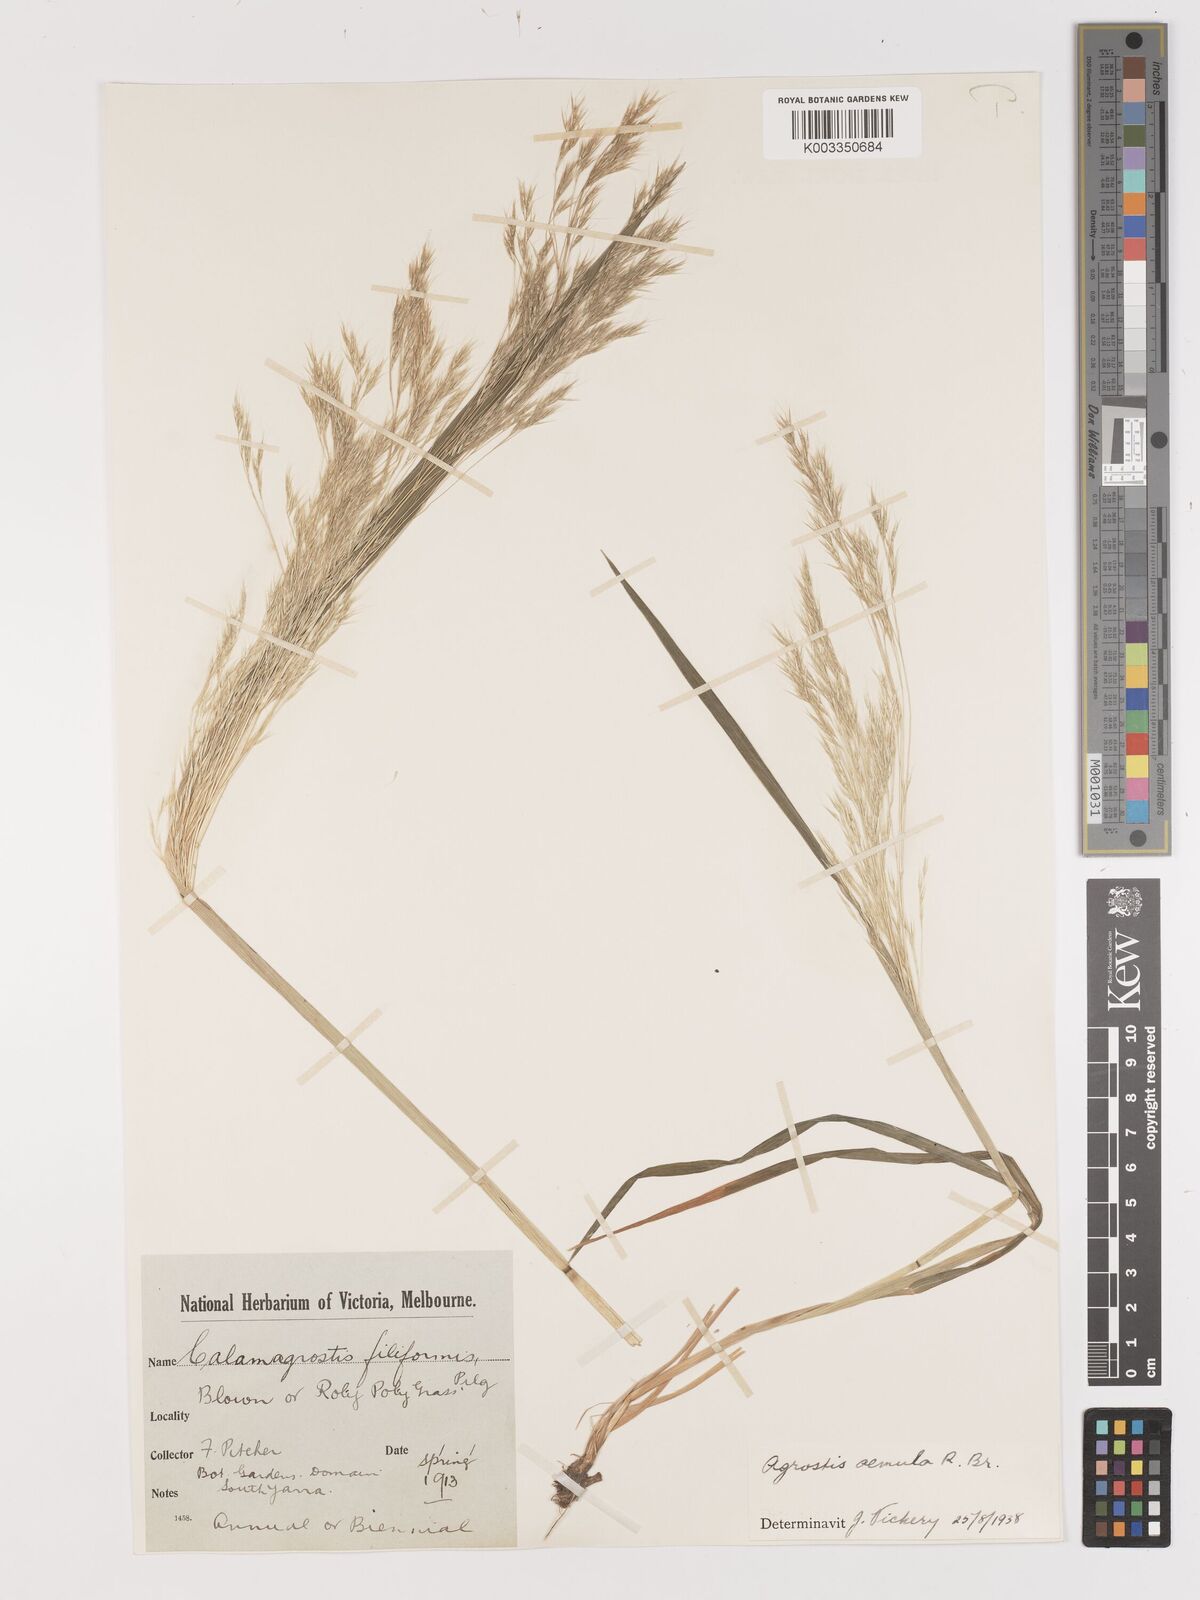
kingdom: Plantae
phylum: Tracheophyta
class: Liliopsida
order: Poales
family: Poaceae
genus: Lachnagrostis
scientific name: Lachnagrostis aemula
